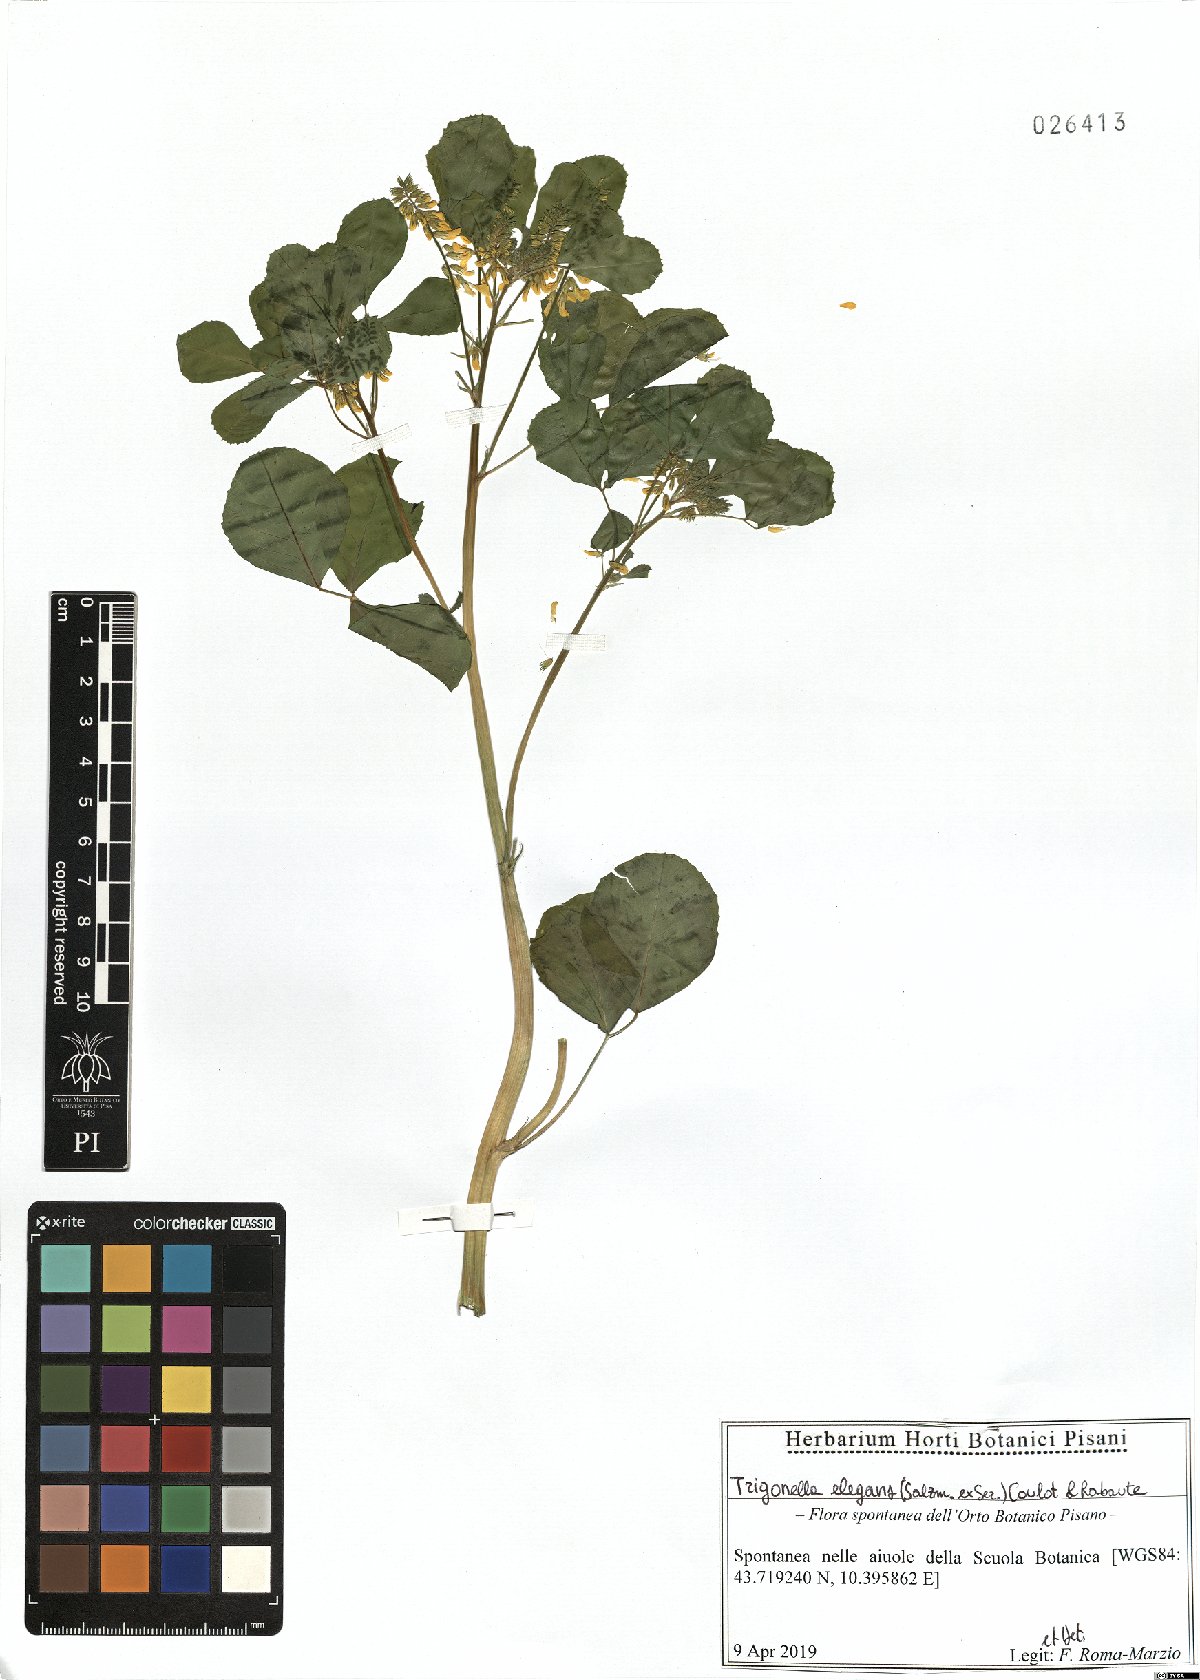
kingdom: Plantae
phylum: Tracheophyta
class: Magnoliopsida
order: Fabales
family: Fabaceae
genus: Melilotus
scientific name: Melilotus elegans
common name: Elegant sweet-clover
